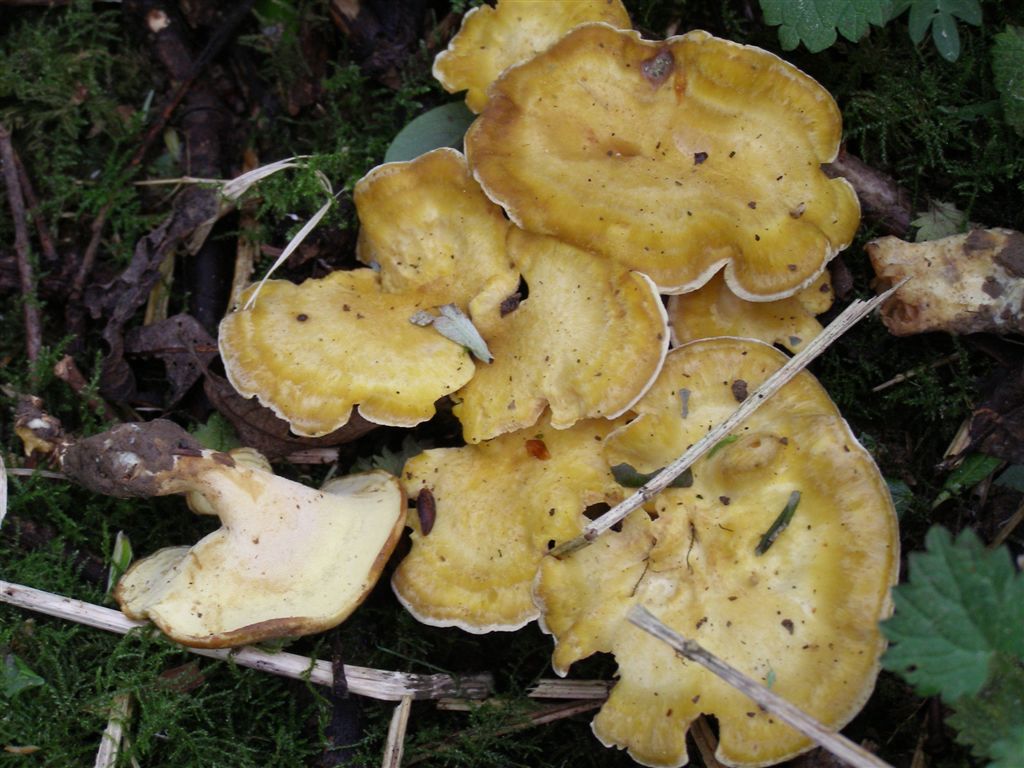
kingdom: Fungi
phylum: Basidiomycota
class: Agaricomycetes
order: Polyporales
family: Steccherinaceae
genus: Xanthoporus
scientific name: Xanthoporus syringae
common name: solporesvamp
